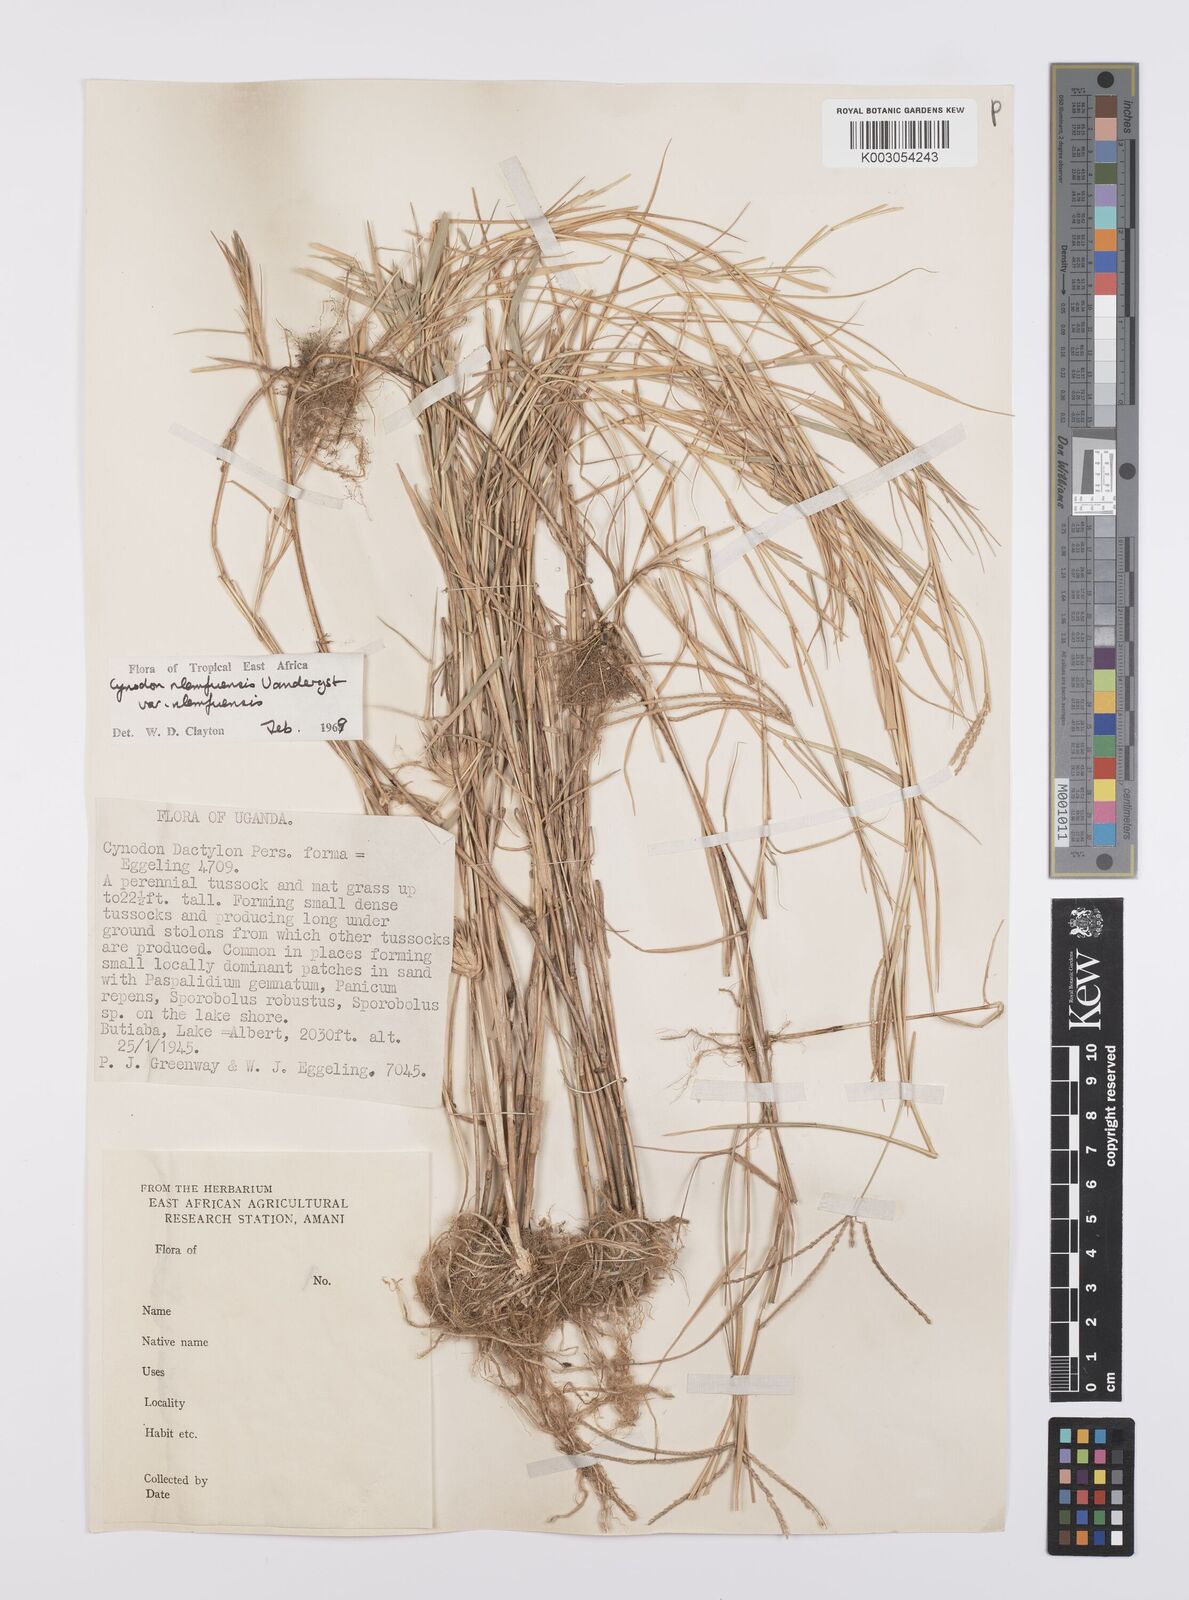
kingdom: Plantae
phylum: Tracheophyta
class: Liliopsida
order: Poales
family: Poaceae
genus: Cynodon
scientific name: Cynodon nlemfuensis
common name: African bermudagrass
